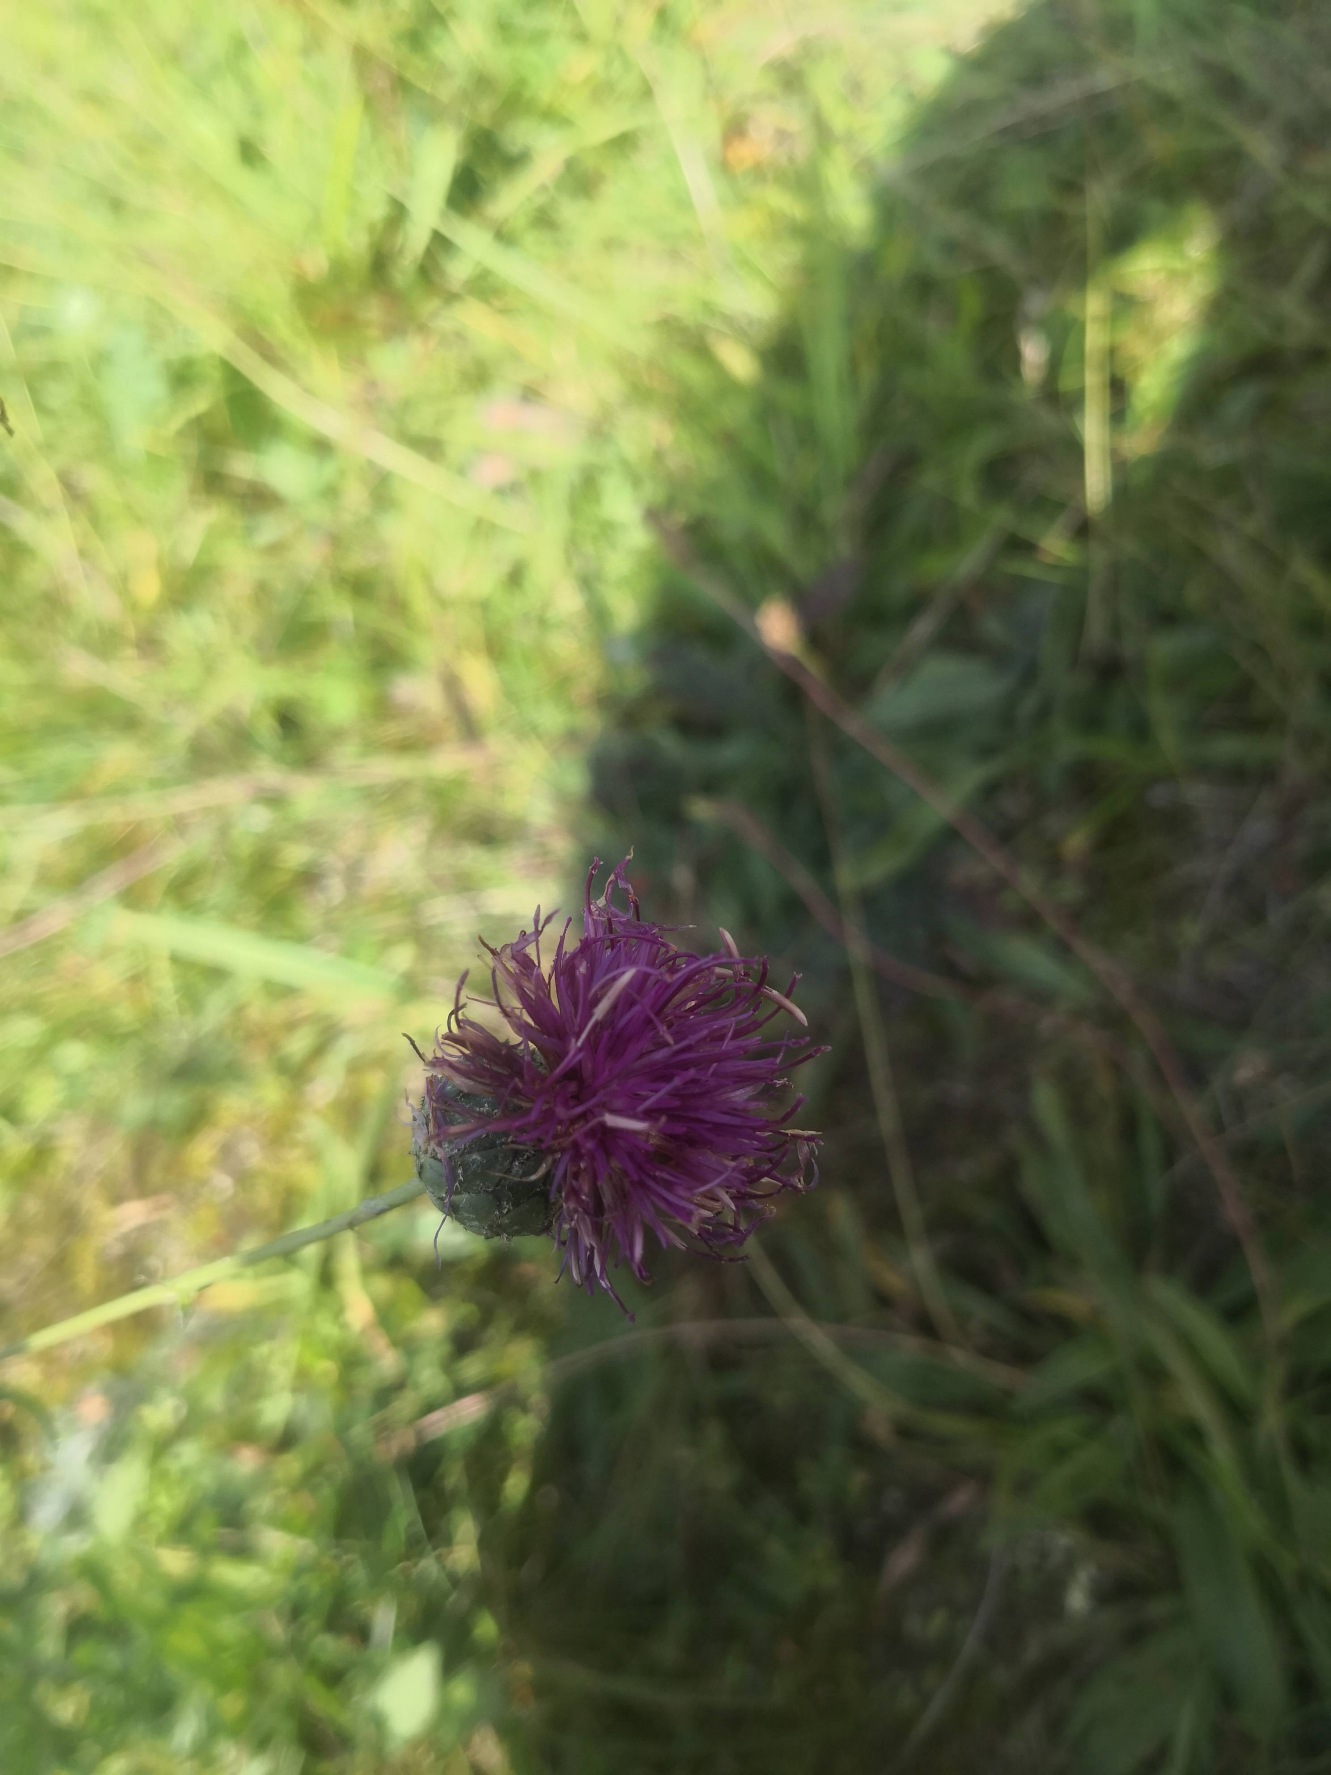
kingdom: Plantae
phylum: Tracheophyta
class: Magnoliopsida
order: Asterales
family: Asteraceae
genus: Centaurea
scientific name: Centaurea scabiosa
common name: Stor knopurt
